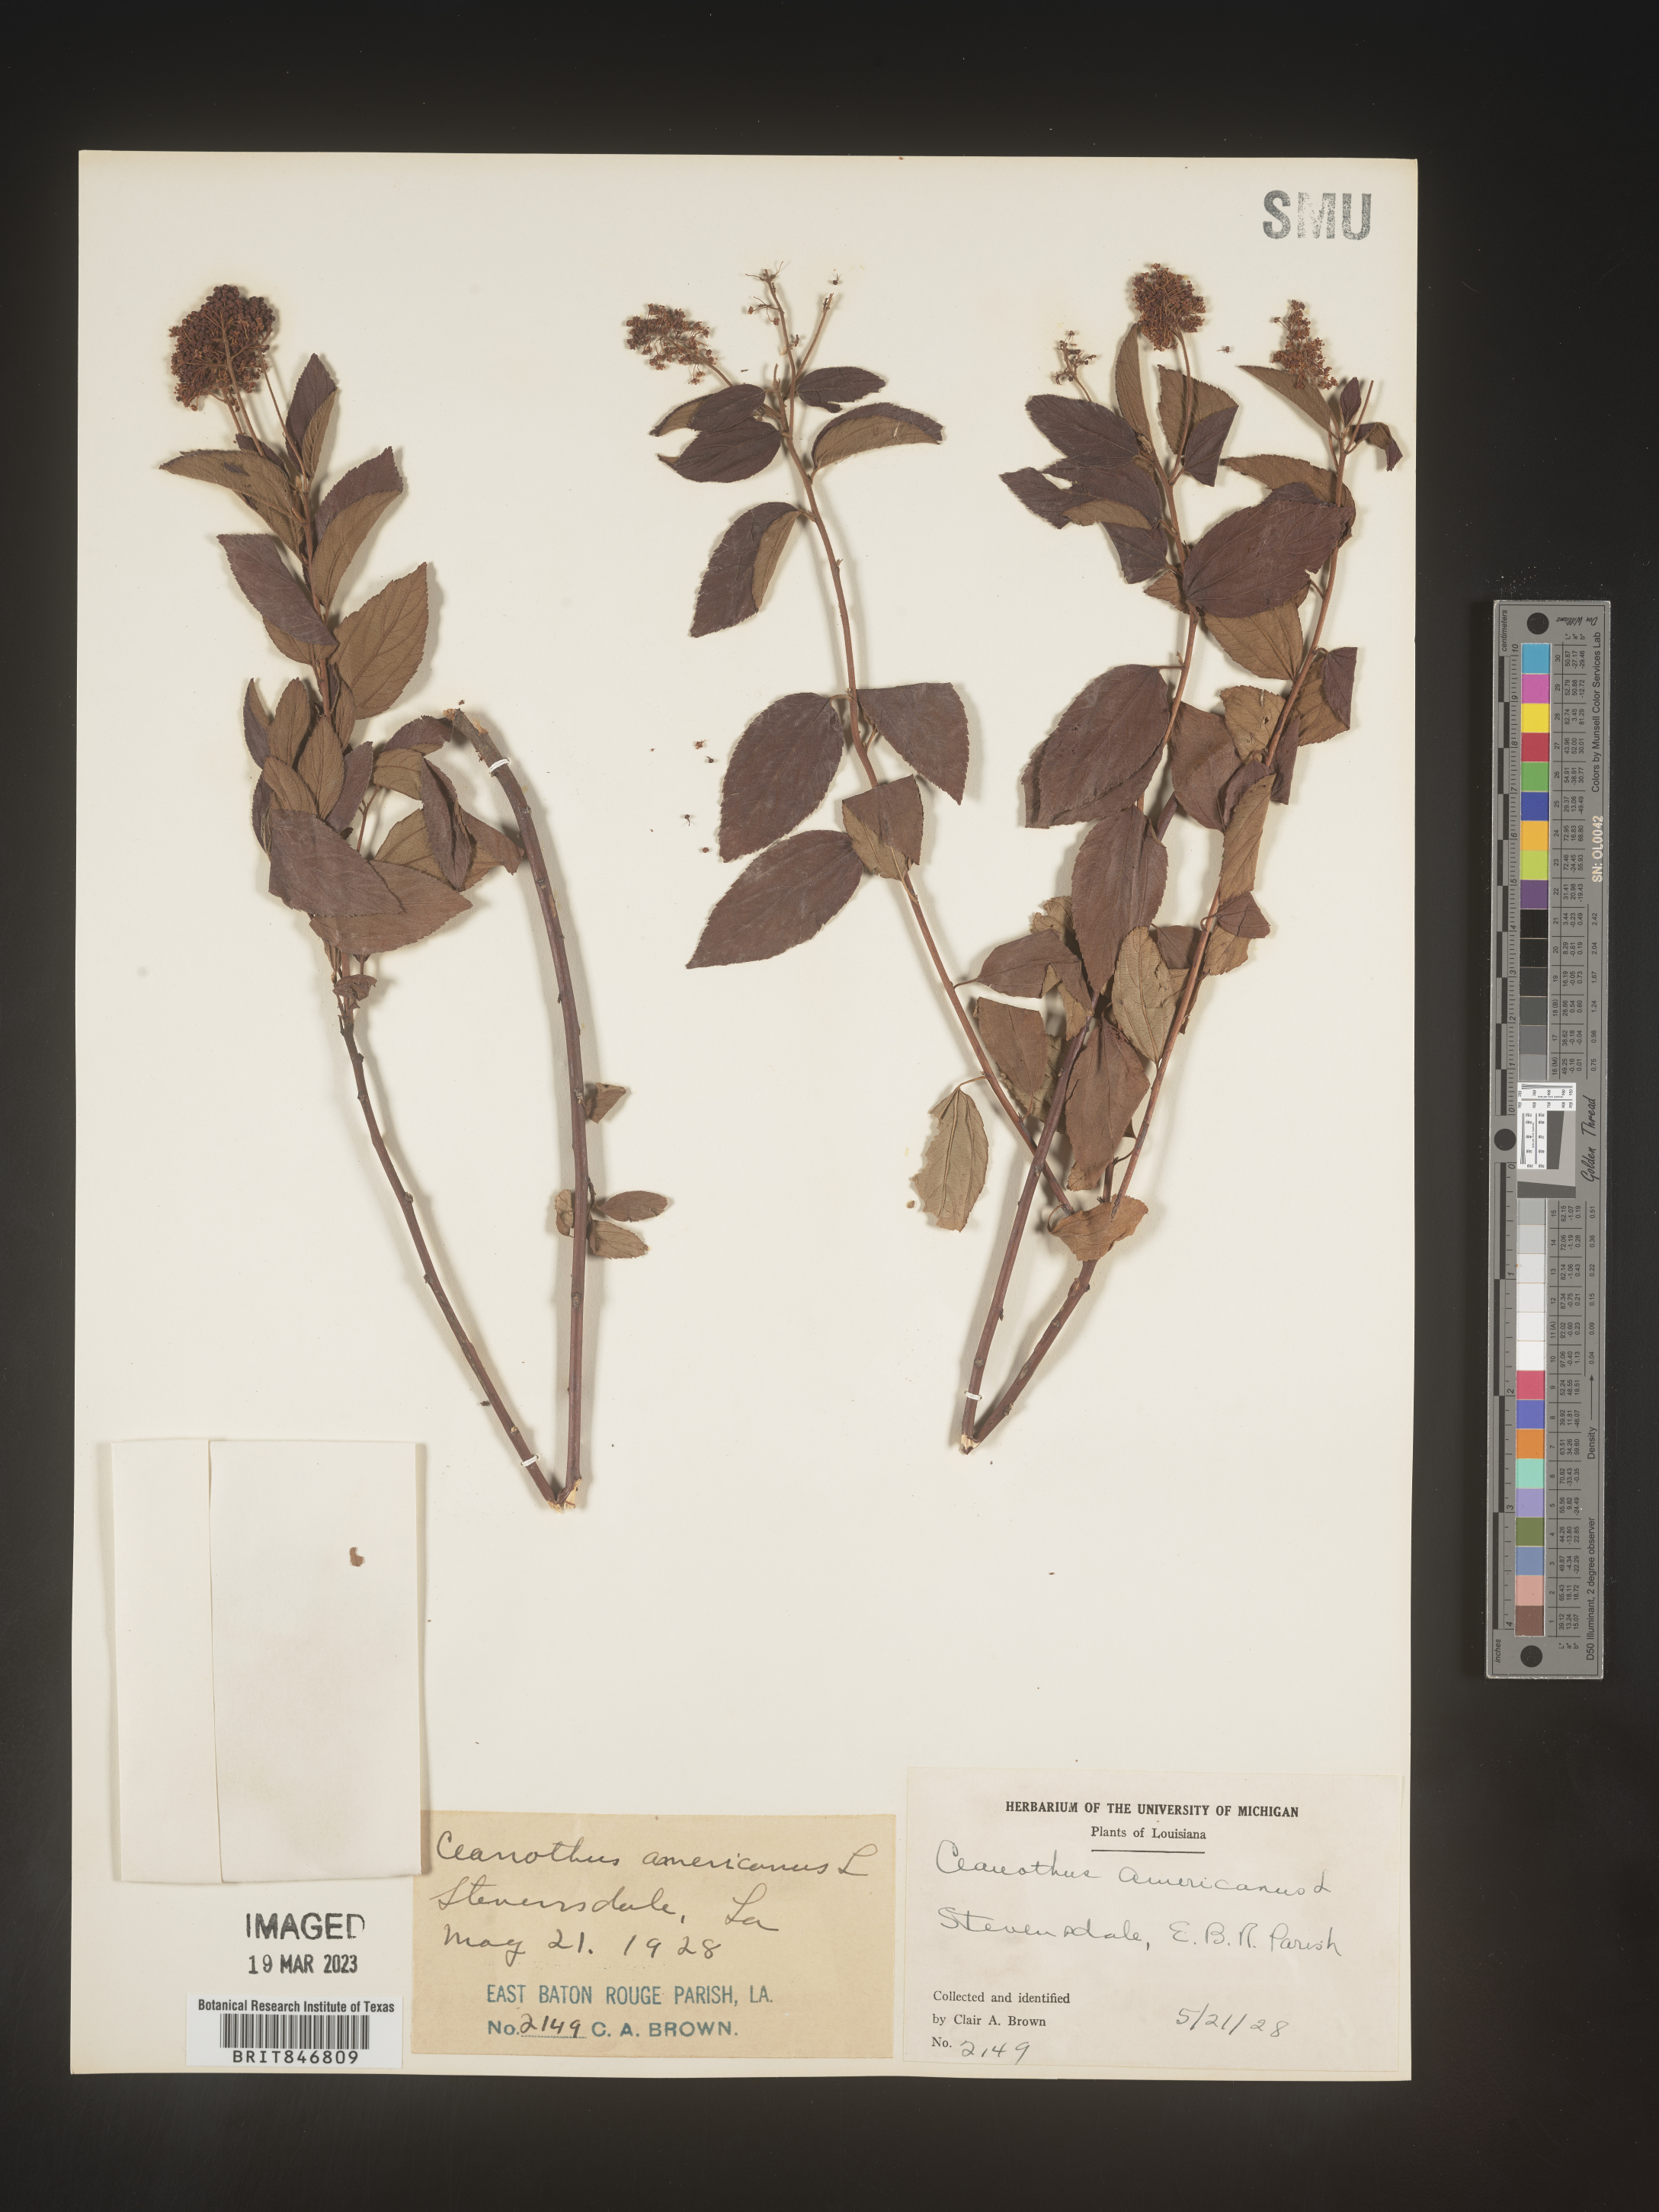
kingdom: Plantae
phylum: Tracheophyta
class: Magnoliopsida
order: Rosales
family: Rhamnaceae
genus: Ceanothus
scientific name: Ceanothus americanus
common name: Redroot
